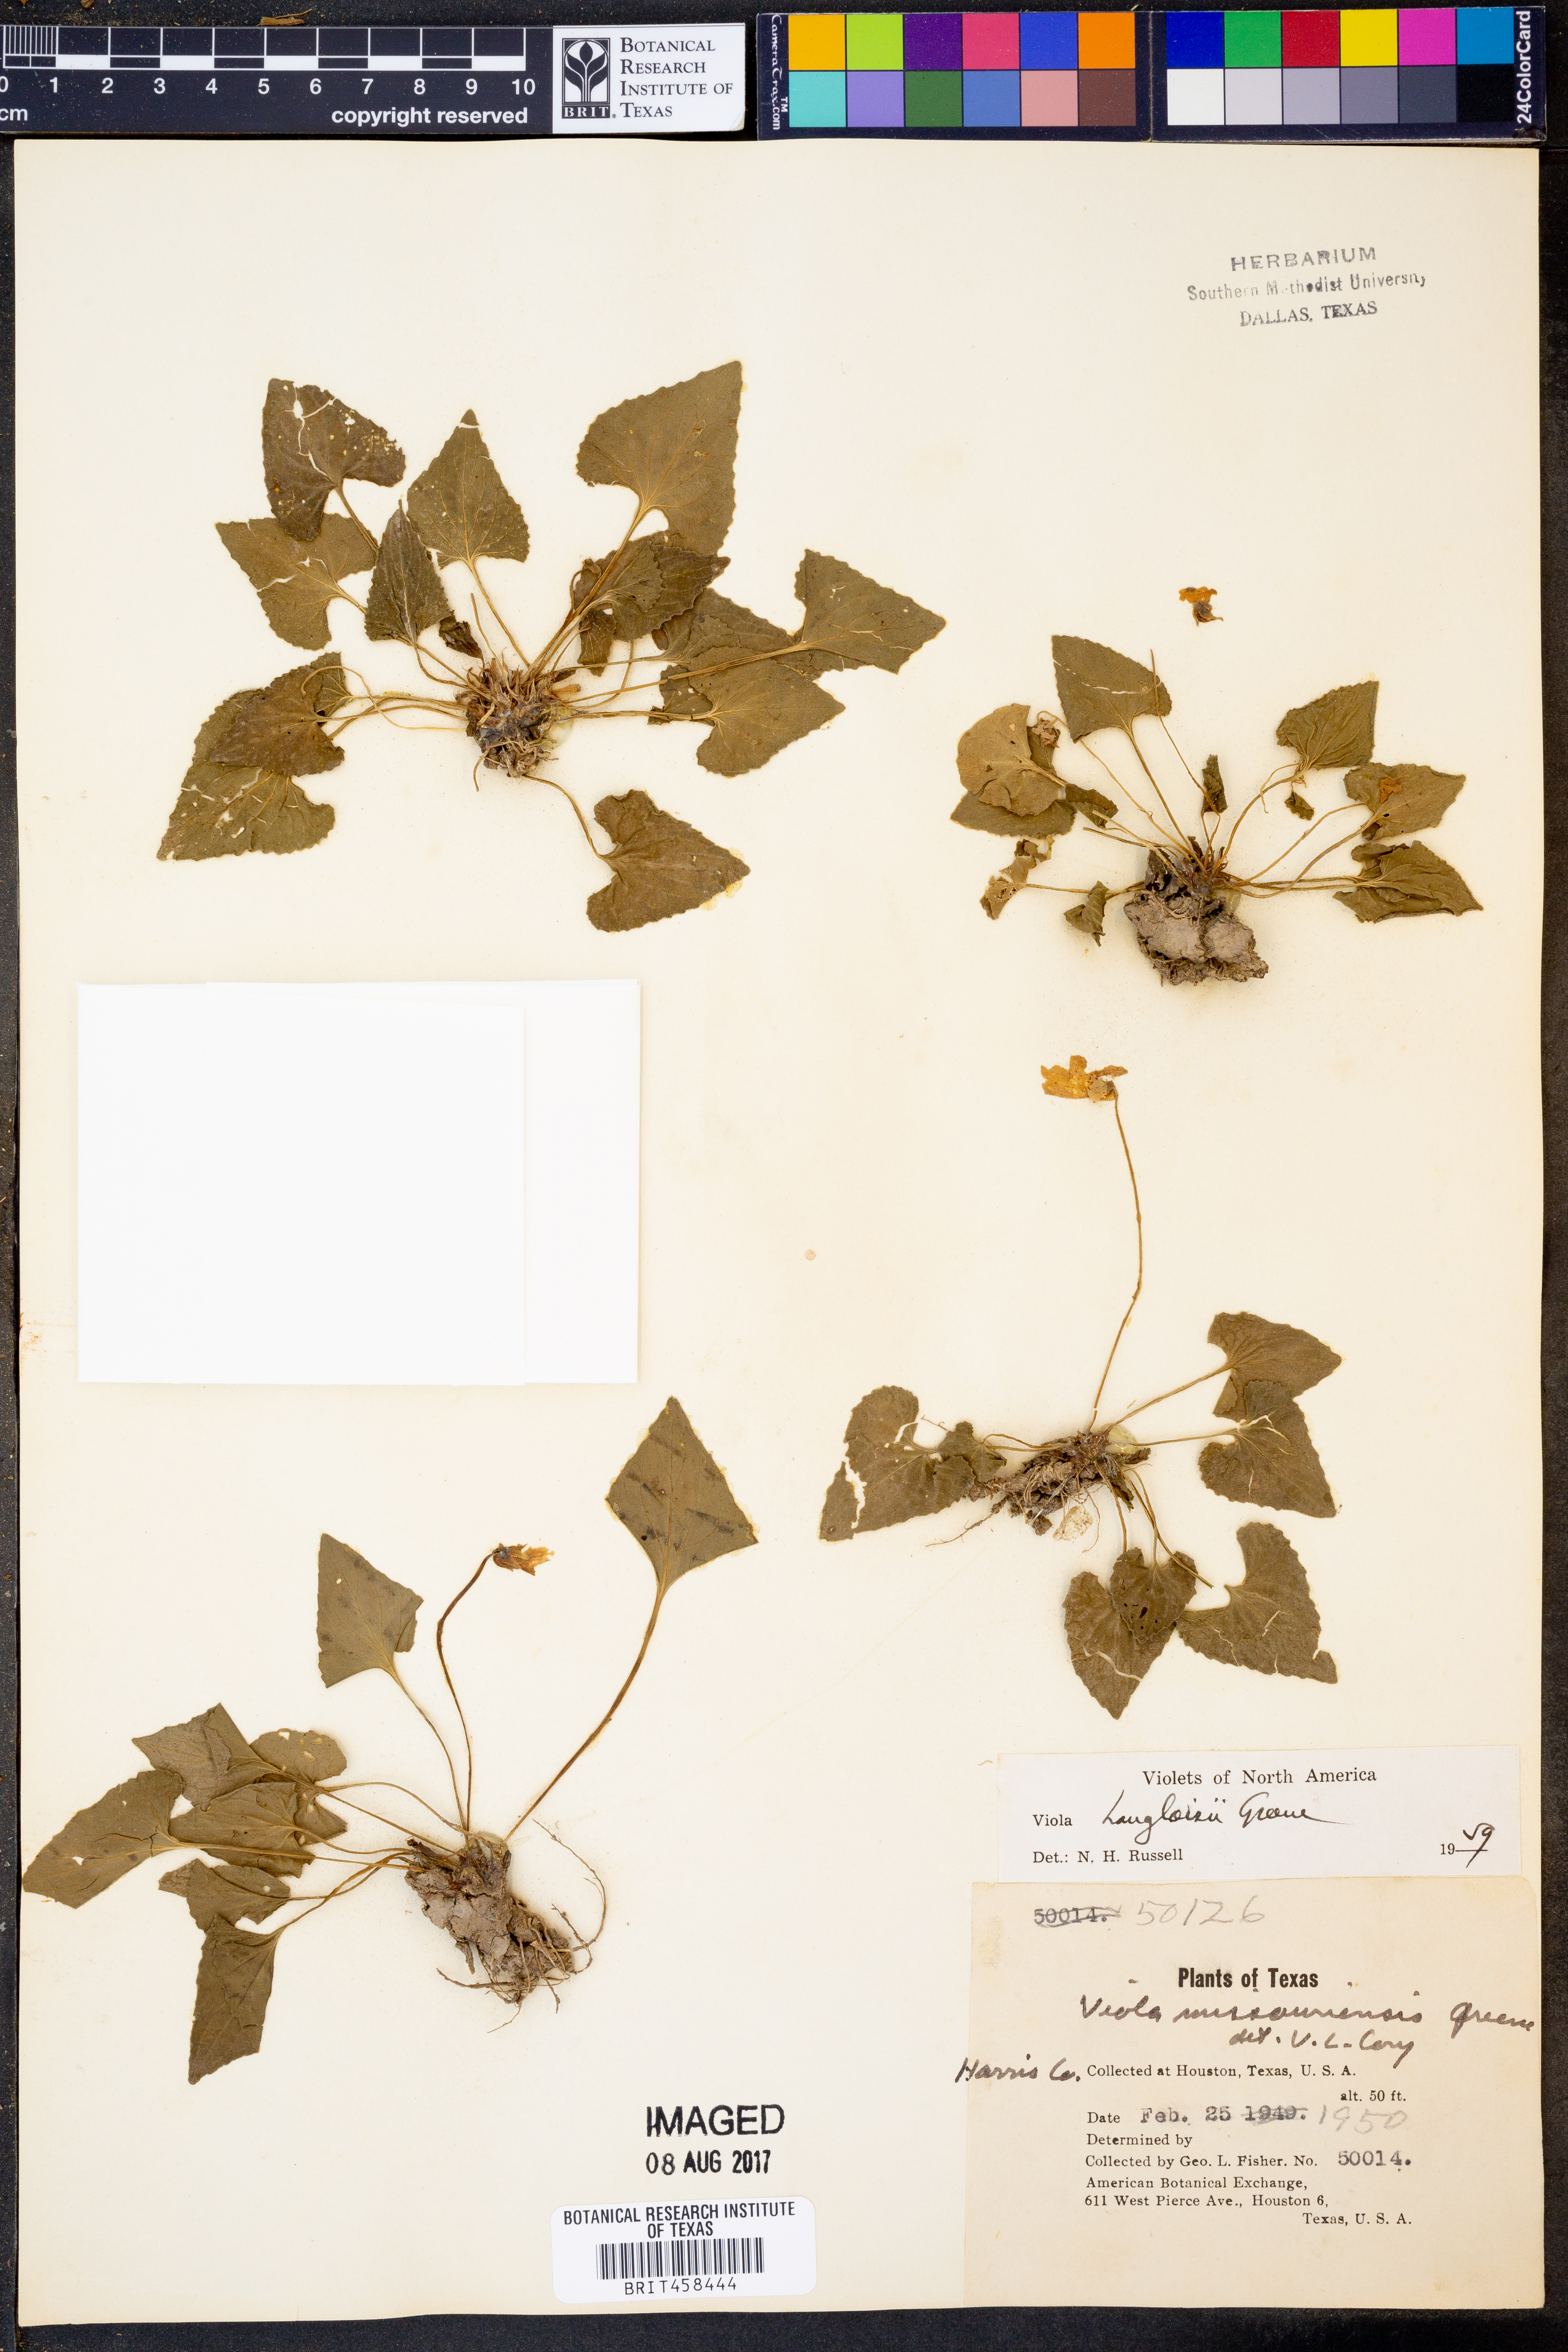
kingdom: Plantae
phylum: Tracheophyta
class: Magnoliopsida
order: Malpighiales
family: Violaceae
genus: Viola
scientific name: Viola langloisii
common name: Langlois' violet
